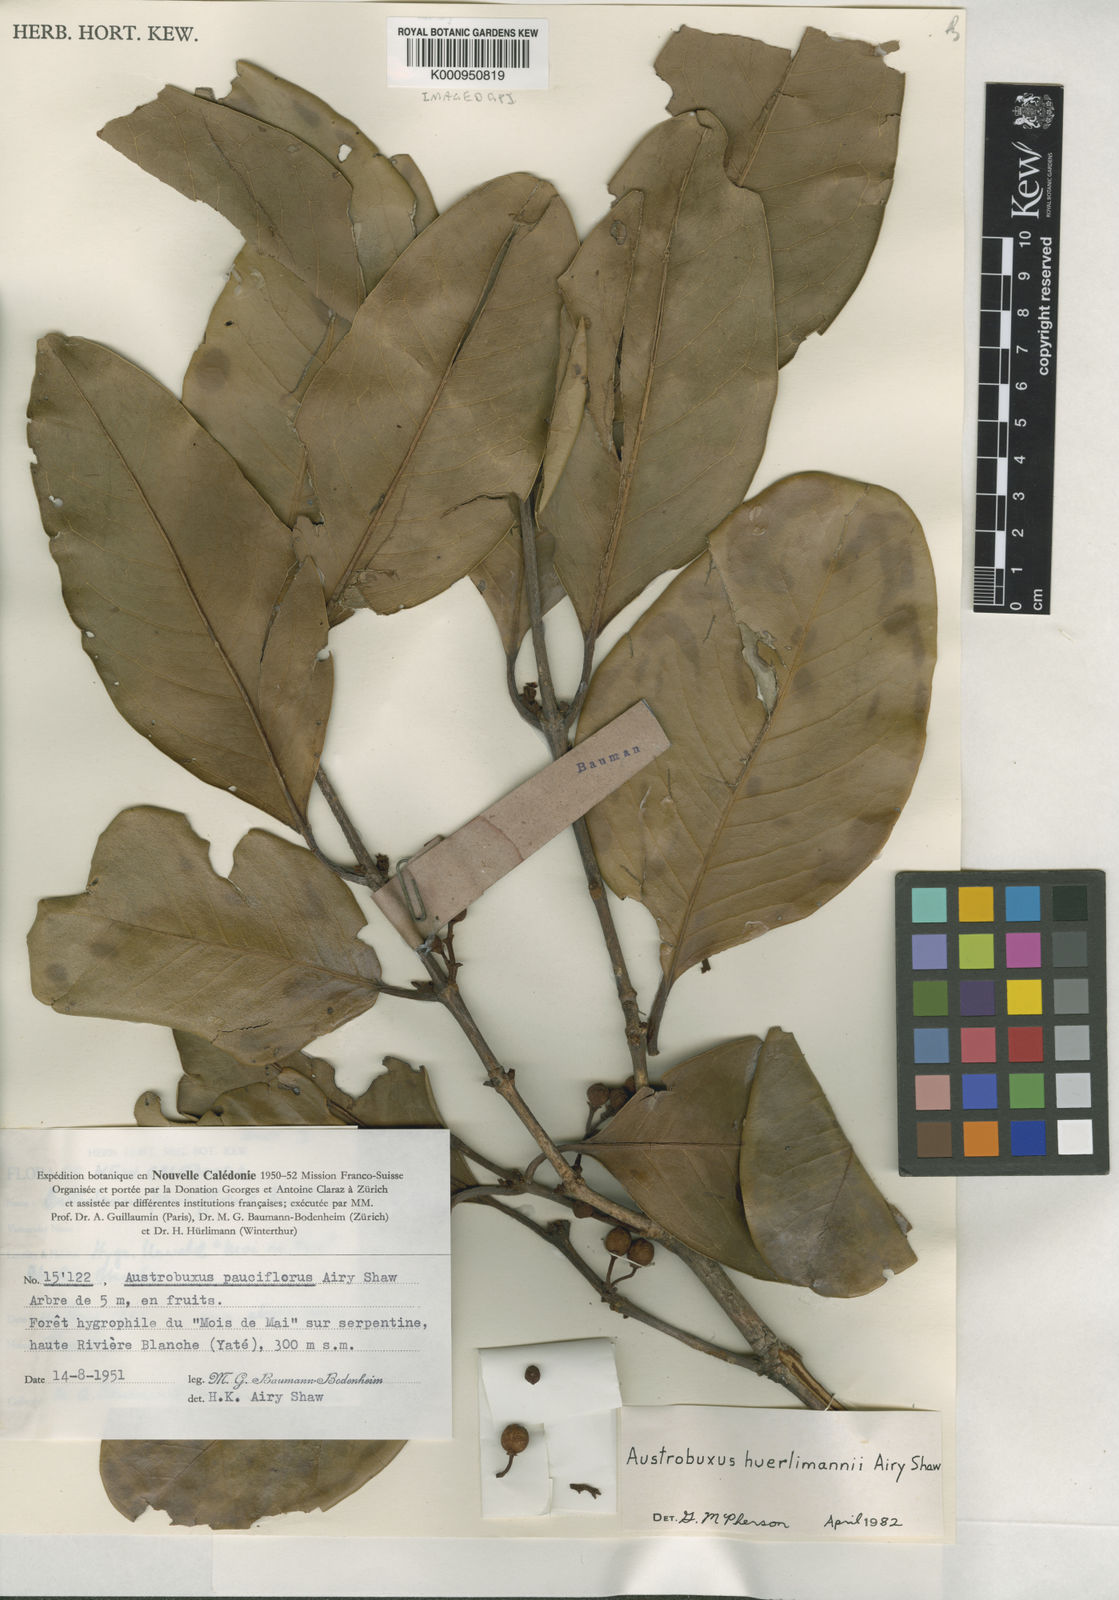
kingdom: Plantae
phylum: Tracheophyta
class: Magnoliopsida
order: Malpighiales
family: Picrodendraceae
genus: Austrobuxus
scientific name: Austrobuxus pauciflorus
